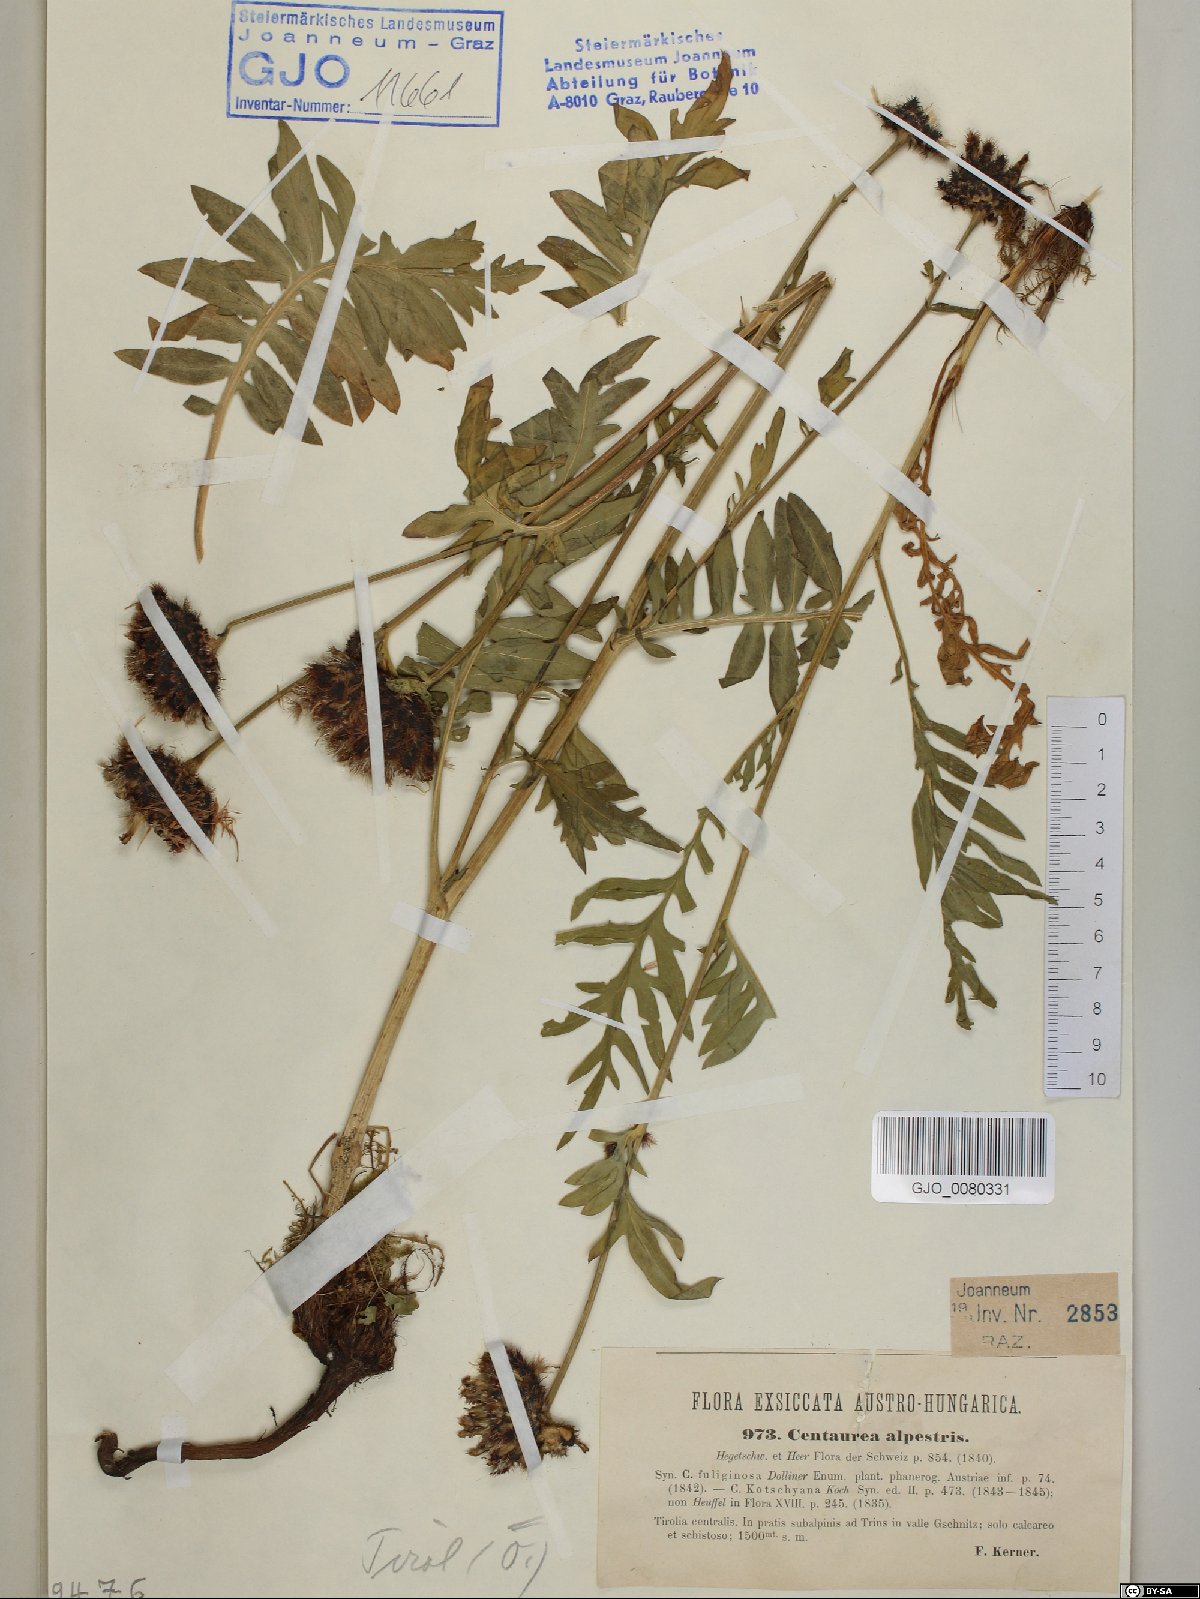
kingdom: Plantae
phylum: Tracheophyta
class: Magnoliopsida
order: Asterales
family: Asteraceae
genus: Centaurea
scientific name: Centaurea scabiosa
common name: Greater knapweed
